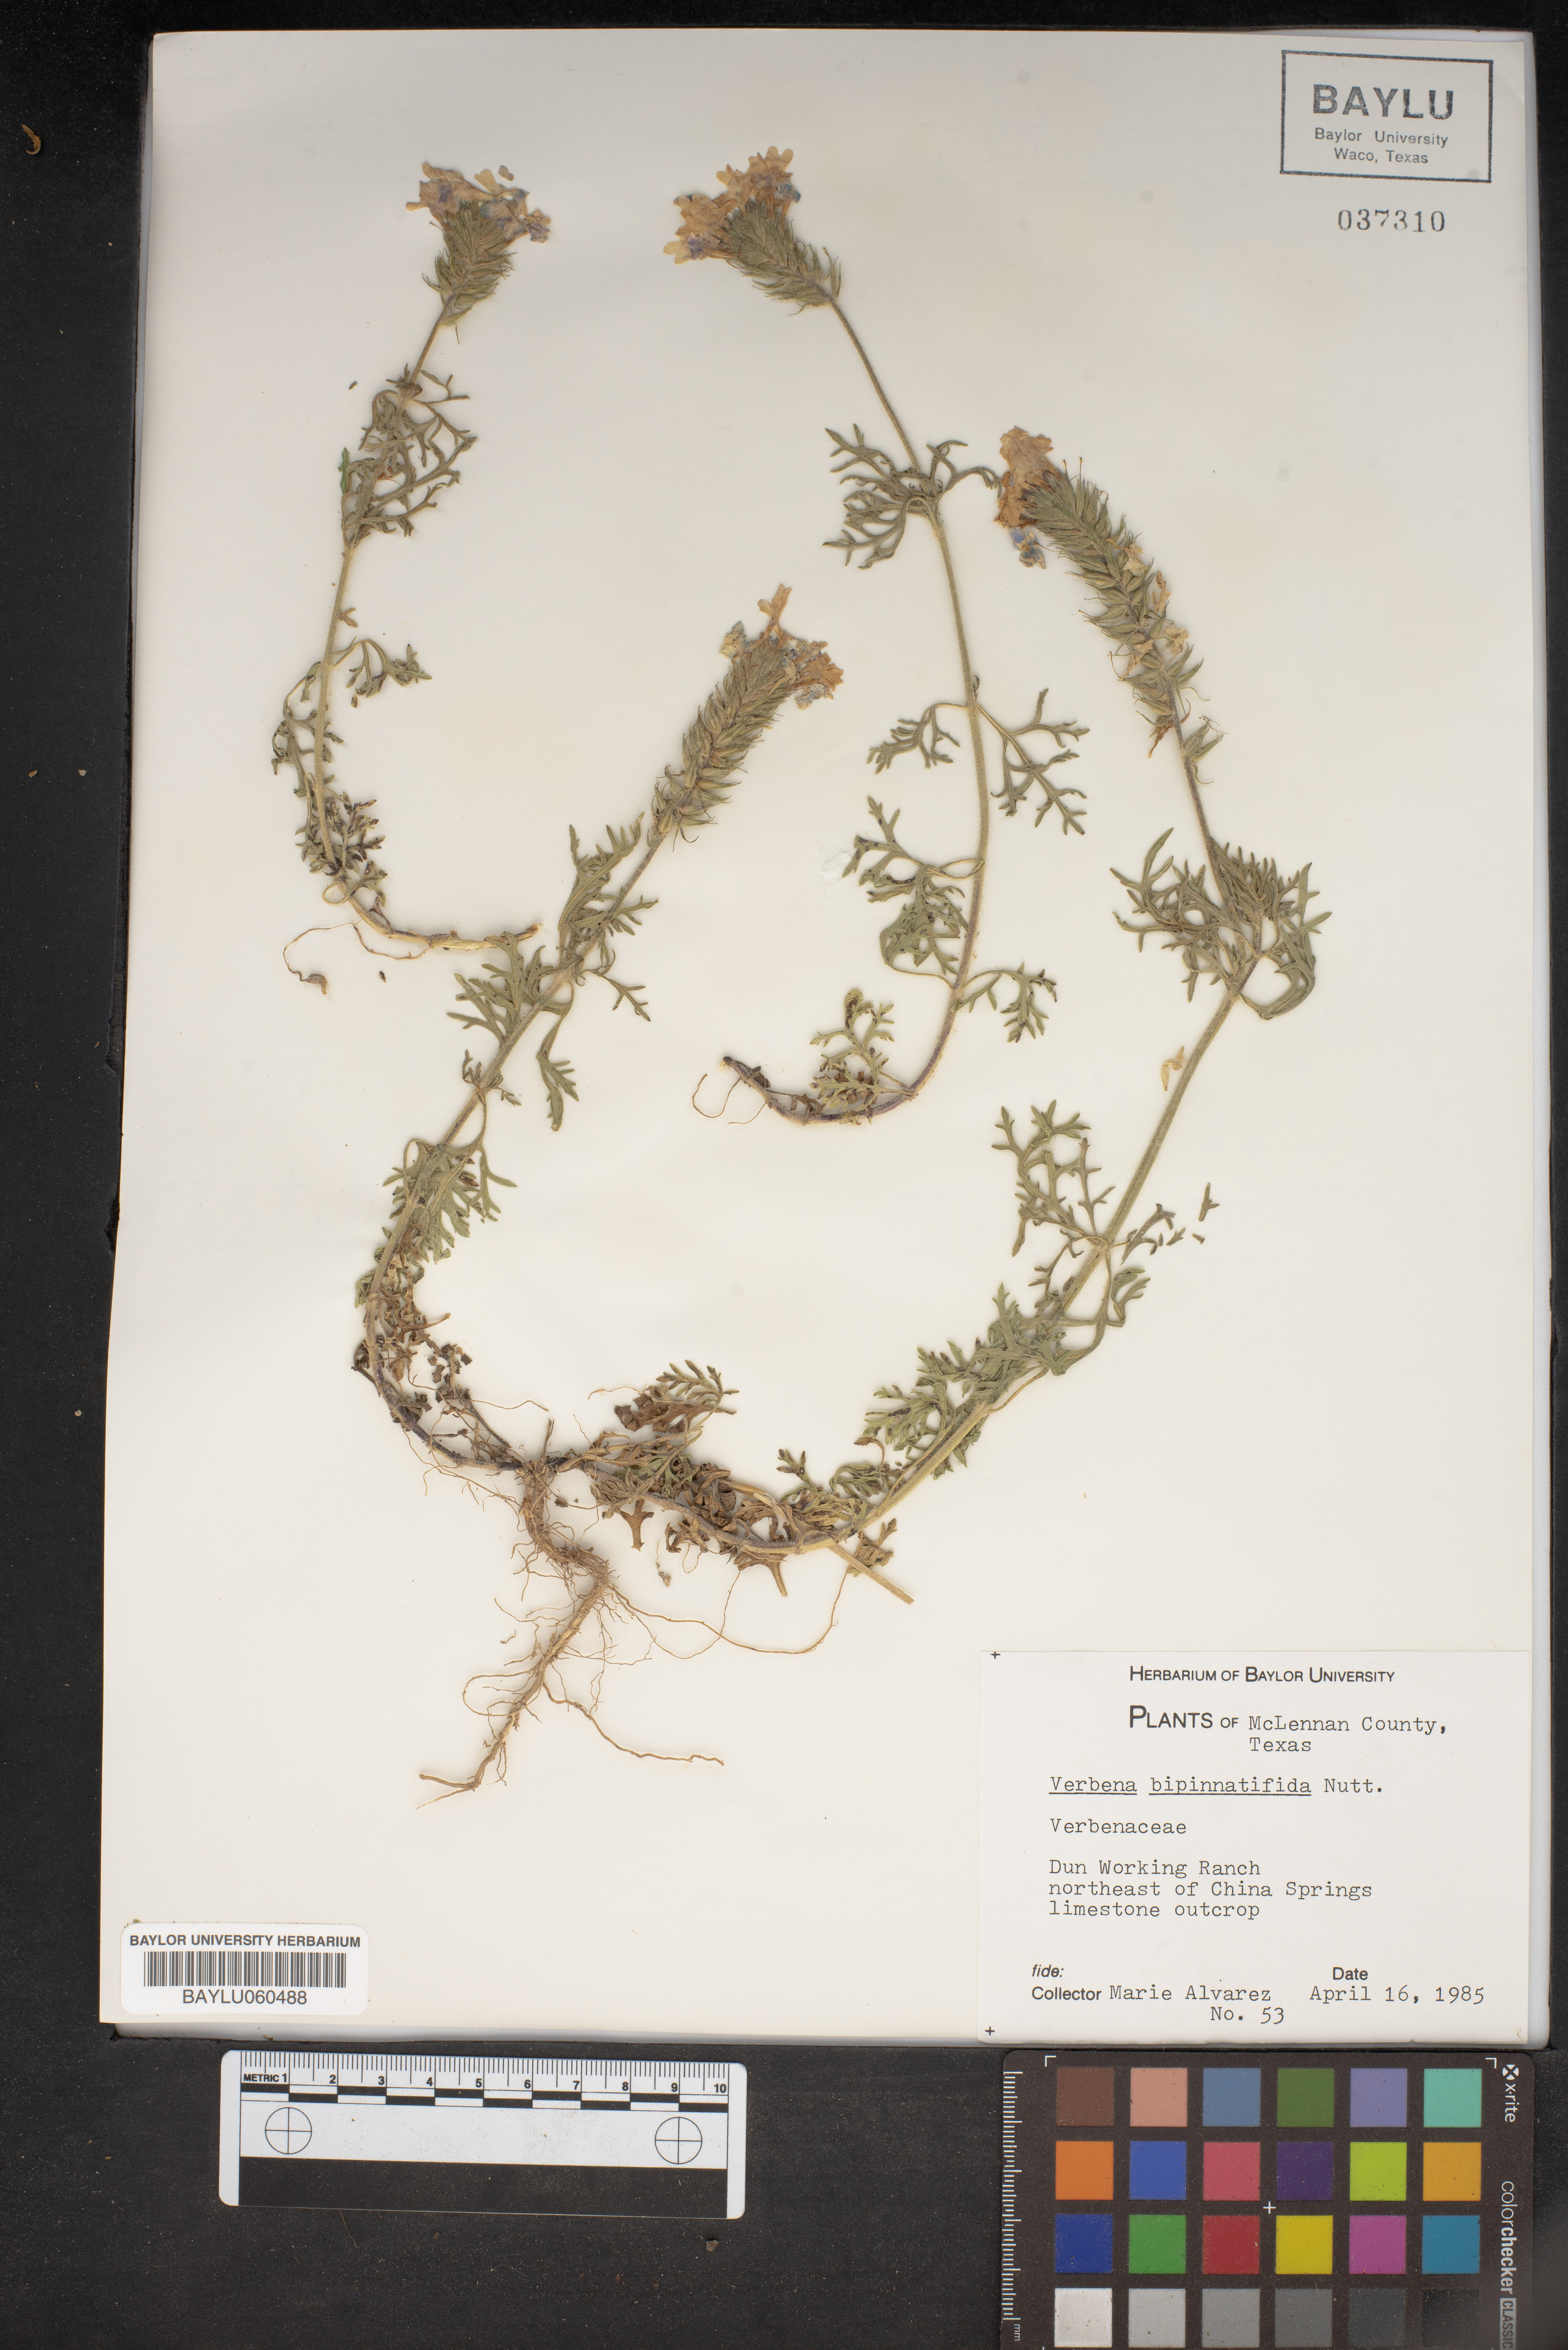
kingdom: Plantae
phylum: Tracheophyta
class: Magnoliopsida
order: Lamiales
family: Verbenaceae
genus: Verbena
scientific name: Verbena bipinnatifida
